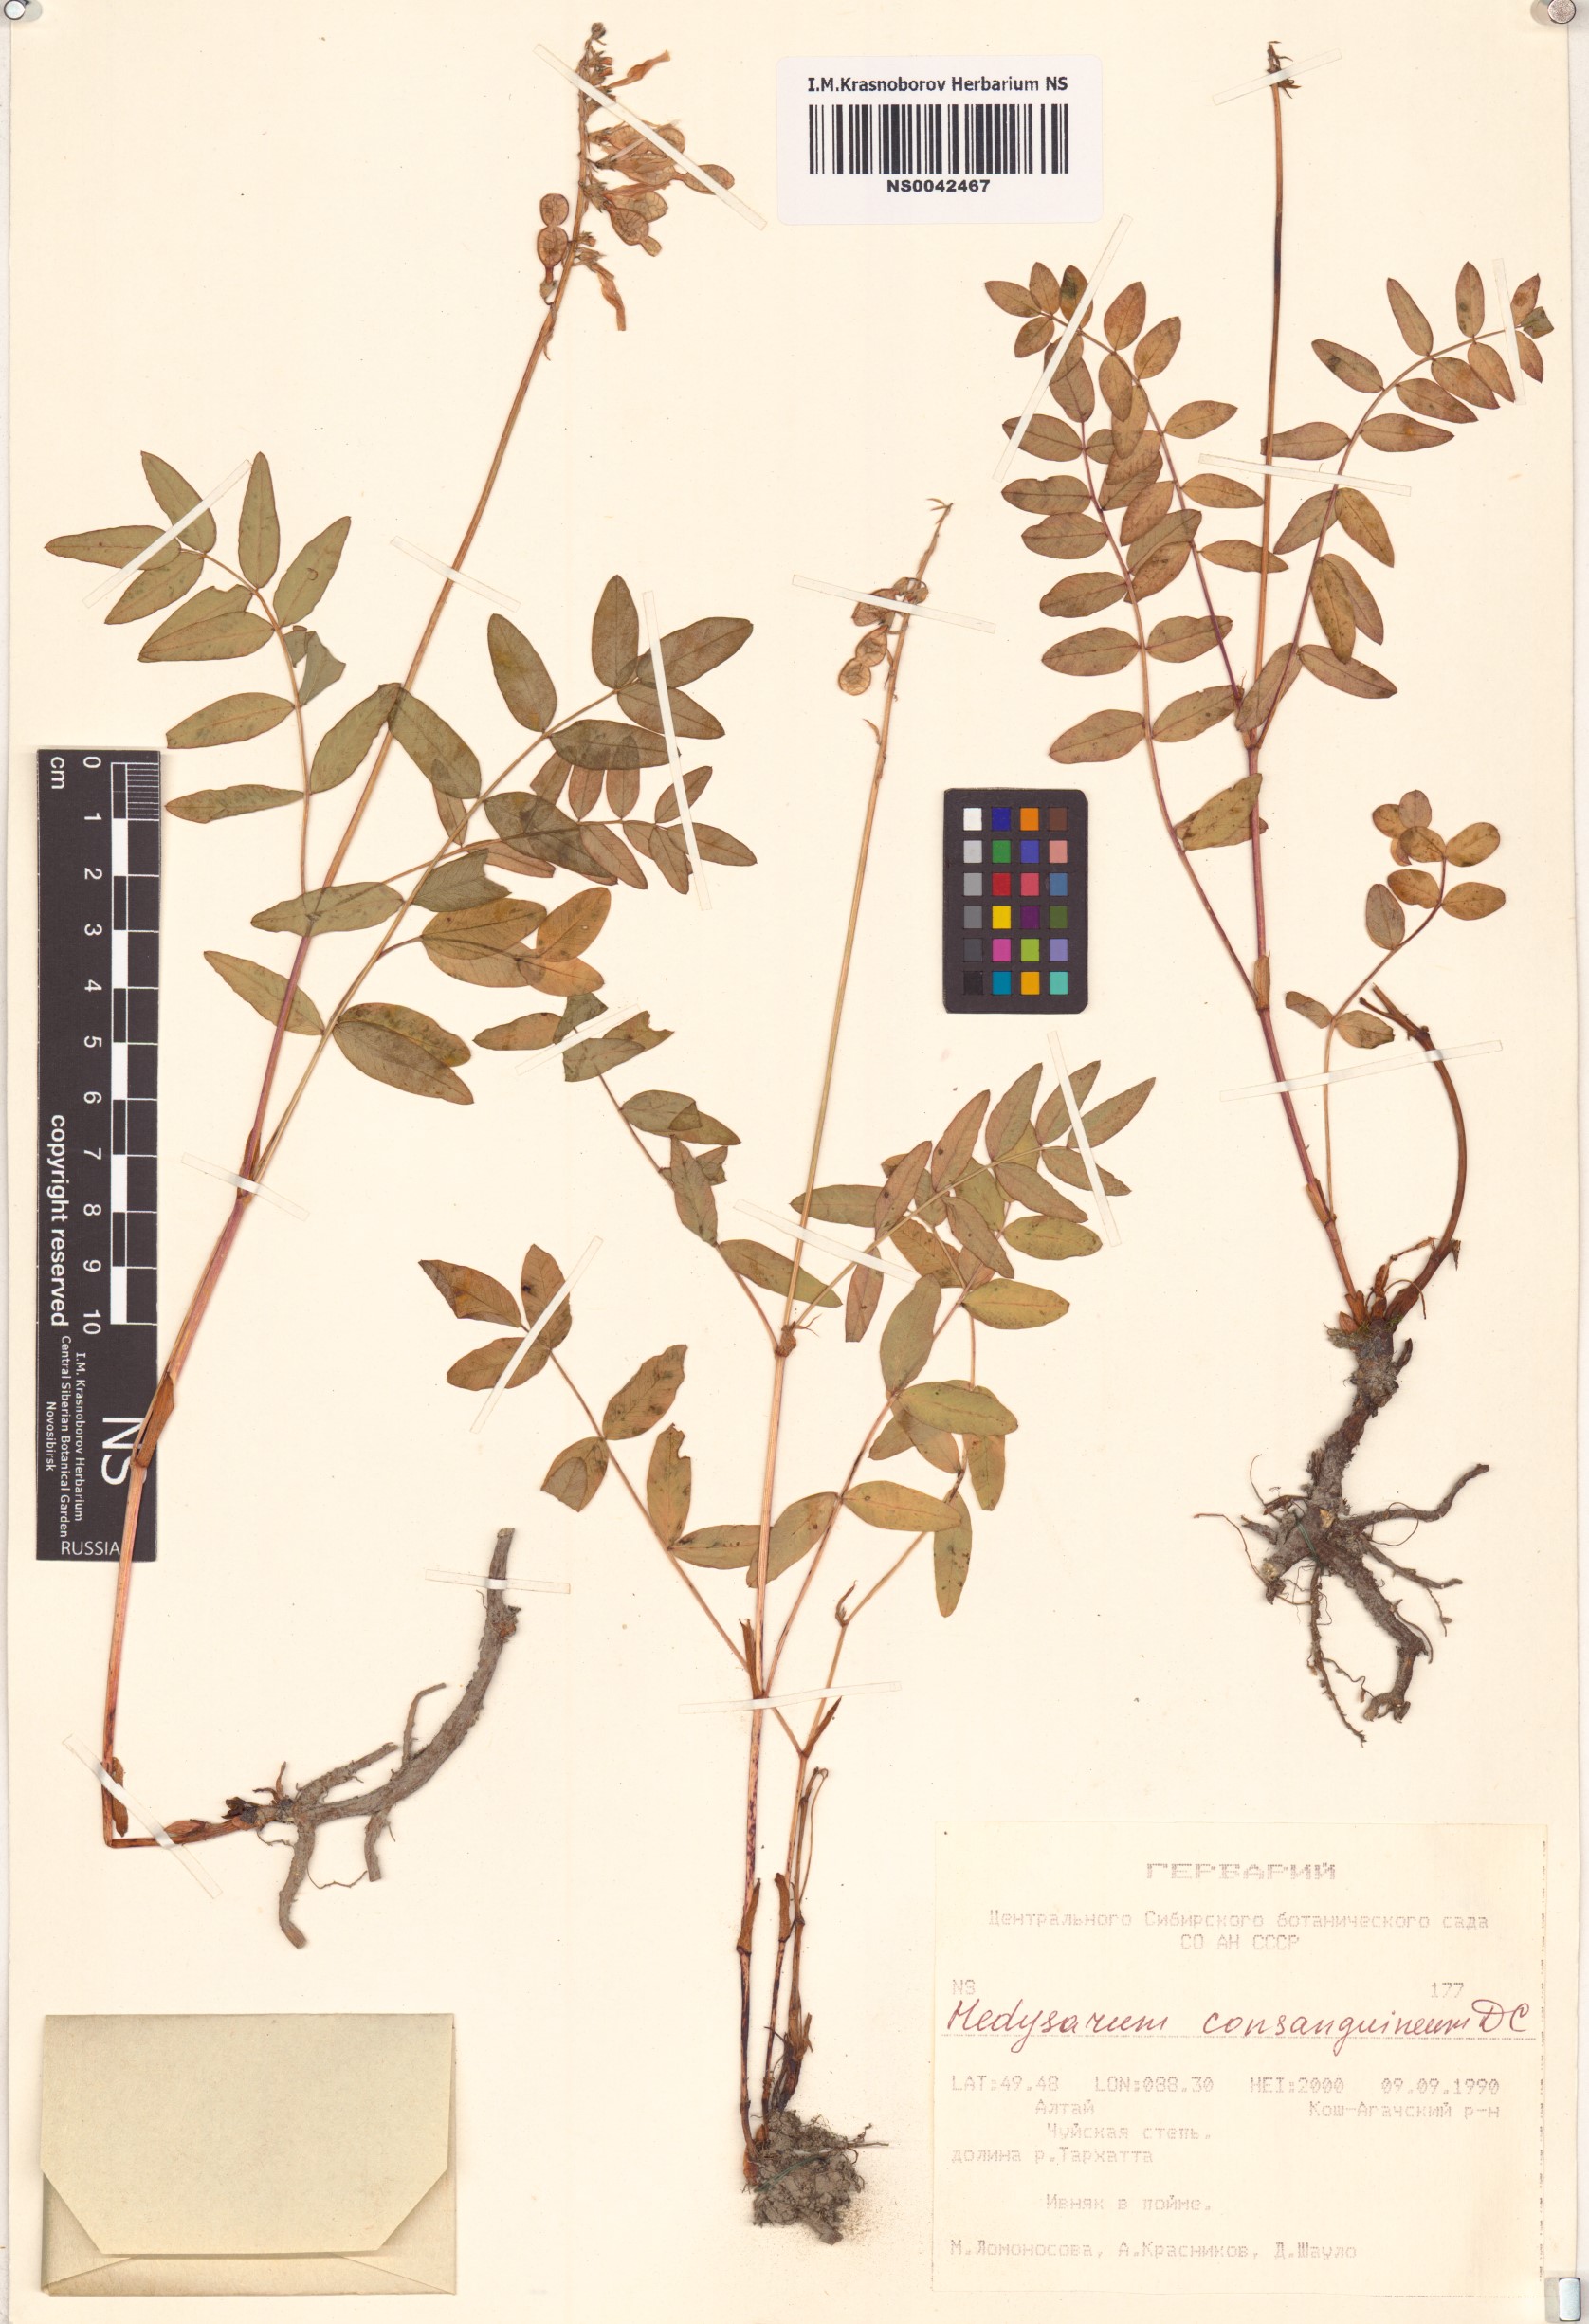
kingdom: Plantae
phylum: Tracheophyta
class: Magnoliopsida
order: Fabales
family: Fabaceae
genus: Hedysarum
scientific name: Hedysarum consanguineum
